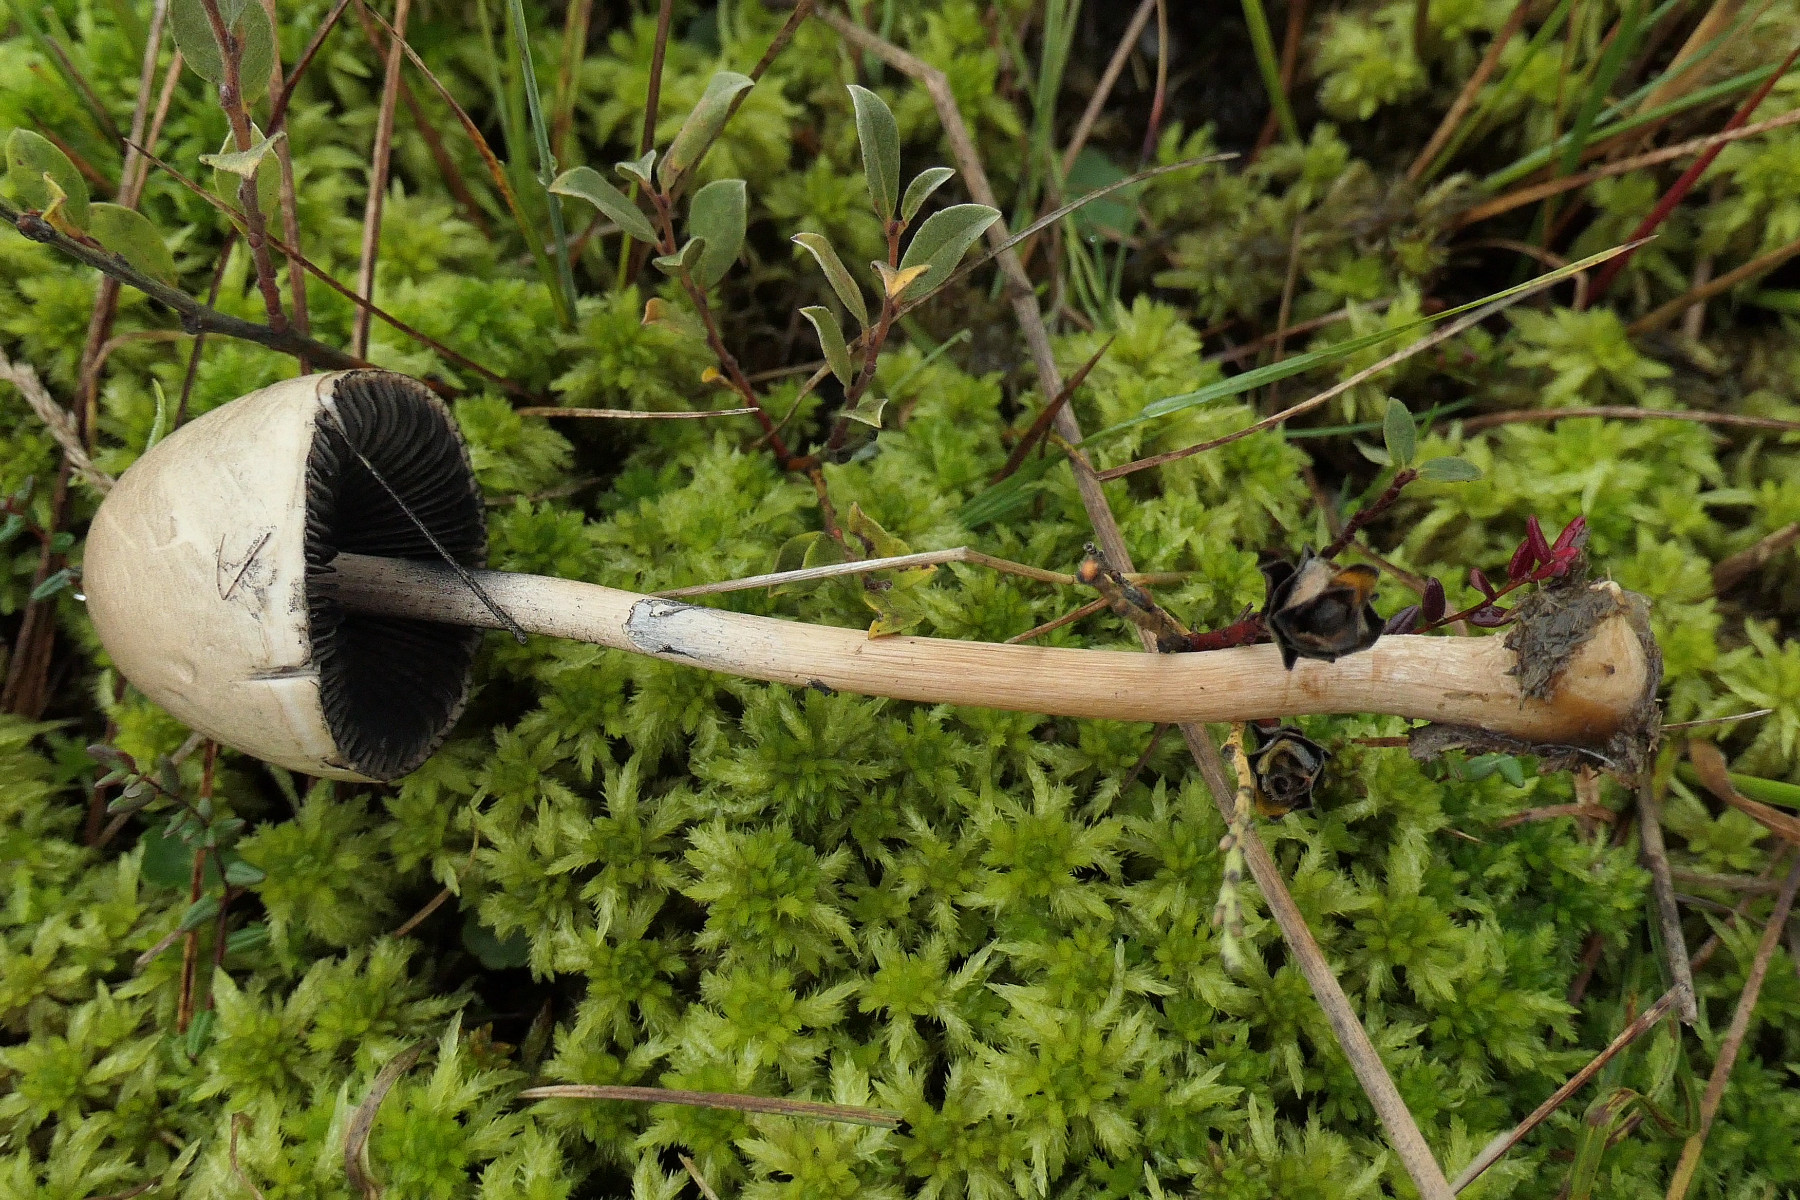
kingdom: Fungi
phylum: Basidiomycota
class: Agaricomycetes
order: Agaricales
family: Bolbitiaceae
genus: Panaeolus
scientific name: Panaeolus semiovatus
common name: ring-glanshat
